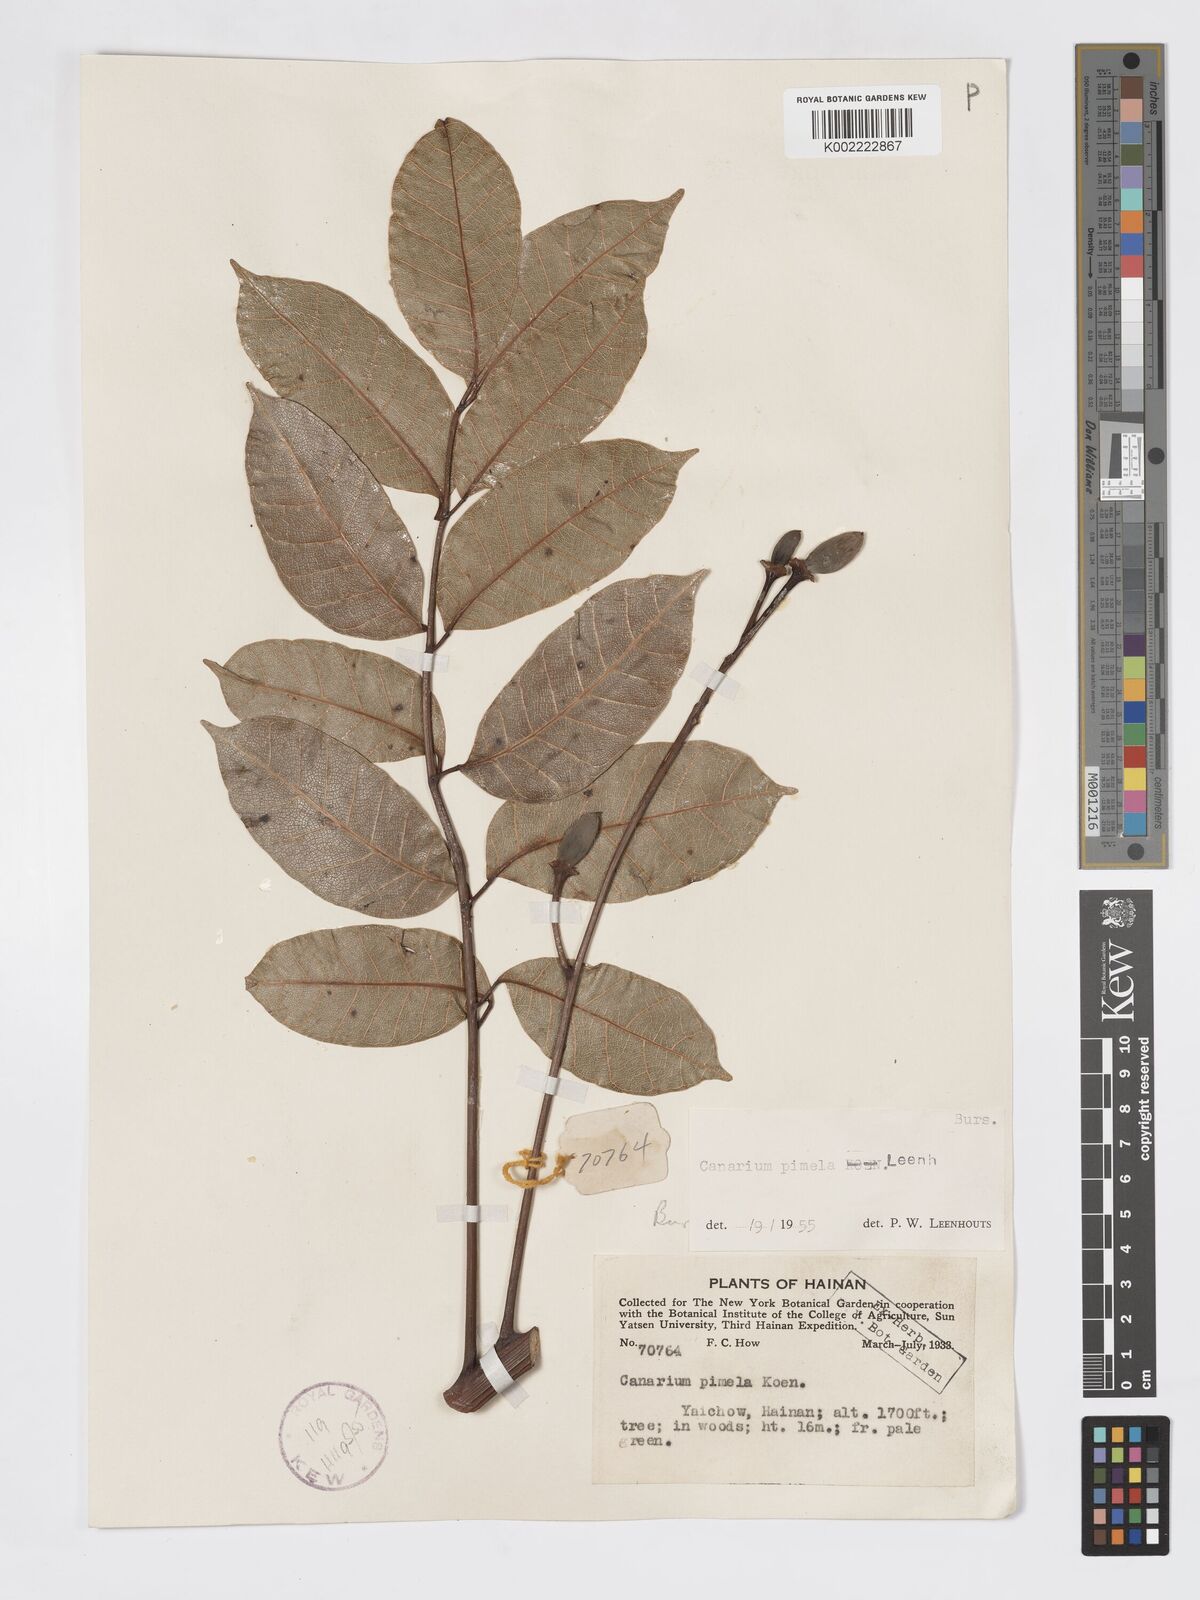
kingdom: Plantae
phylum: Tracheophyta
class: Magnoliopsida
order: Sapindales
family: Burseraceae
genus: Canarium
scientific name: Canarium
